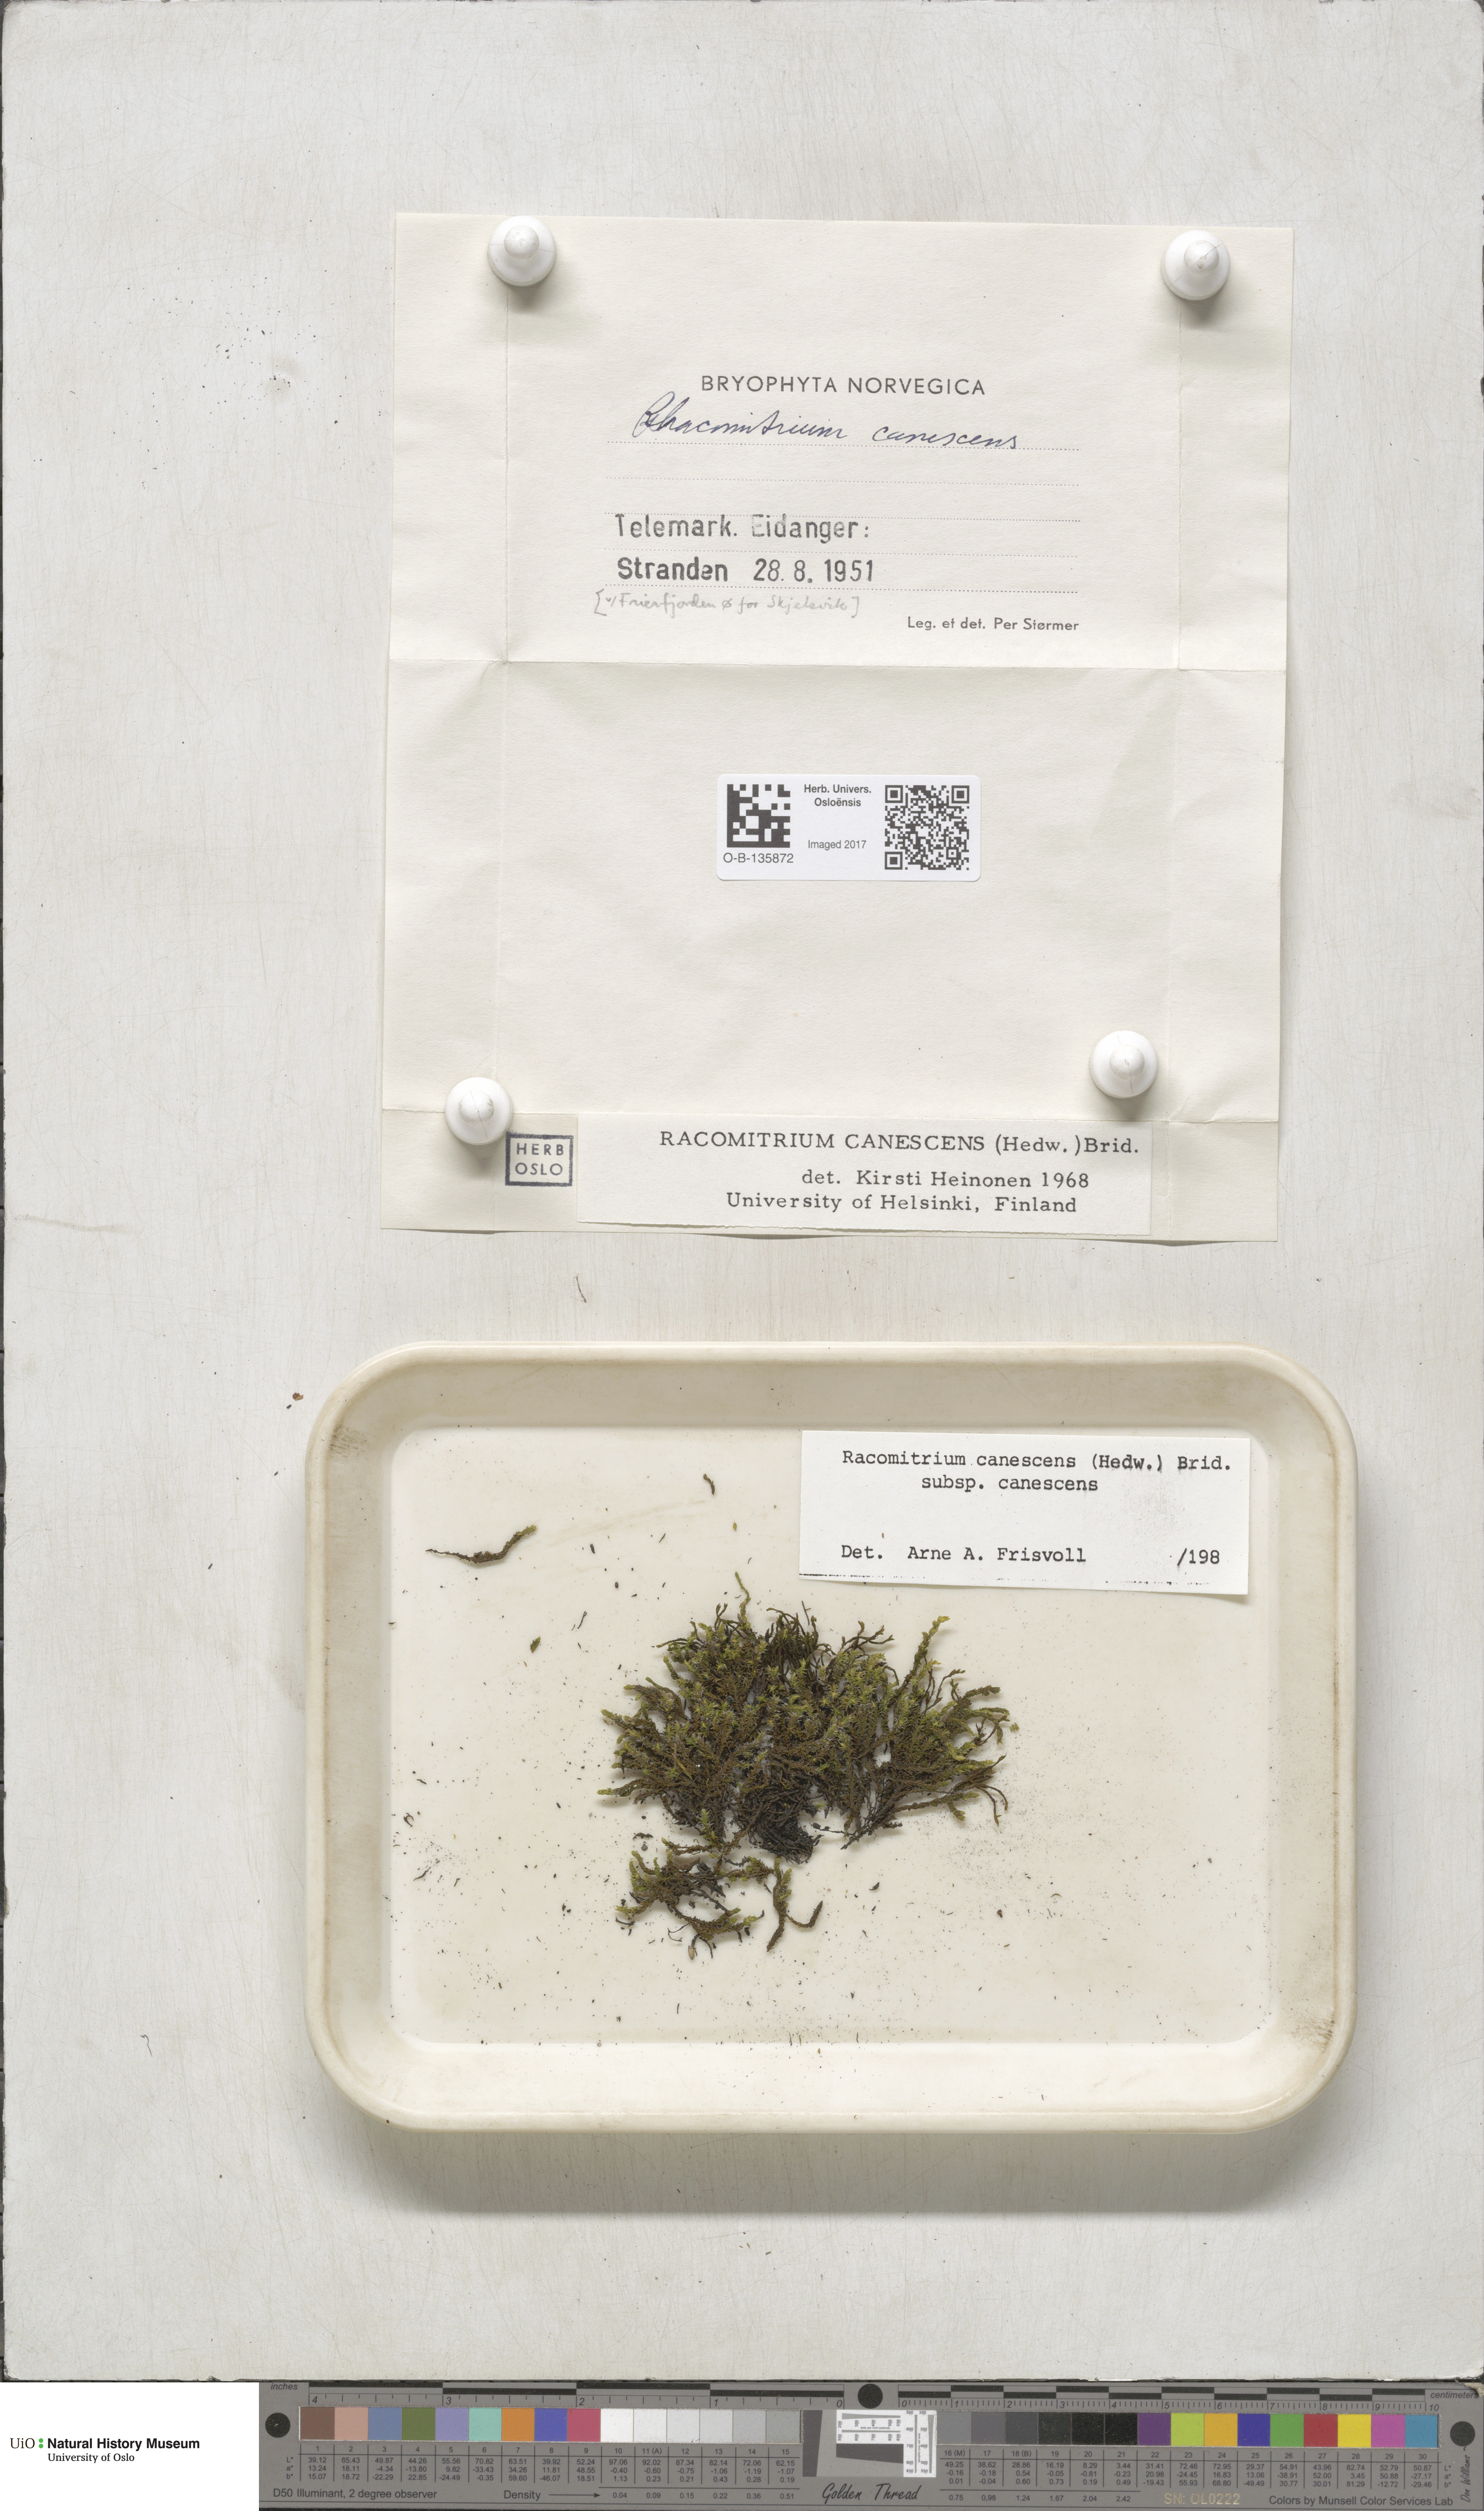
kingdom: Plantae
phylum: Bryophyta
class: Bryopsida
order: Grimmiales
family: Grimmiaceae
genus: Niphotrichum
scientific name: Niphotrichum canescens
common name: Hoary fringe-moss
